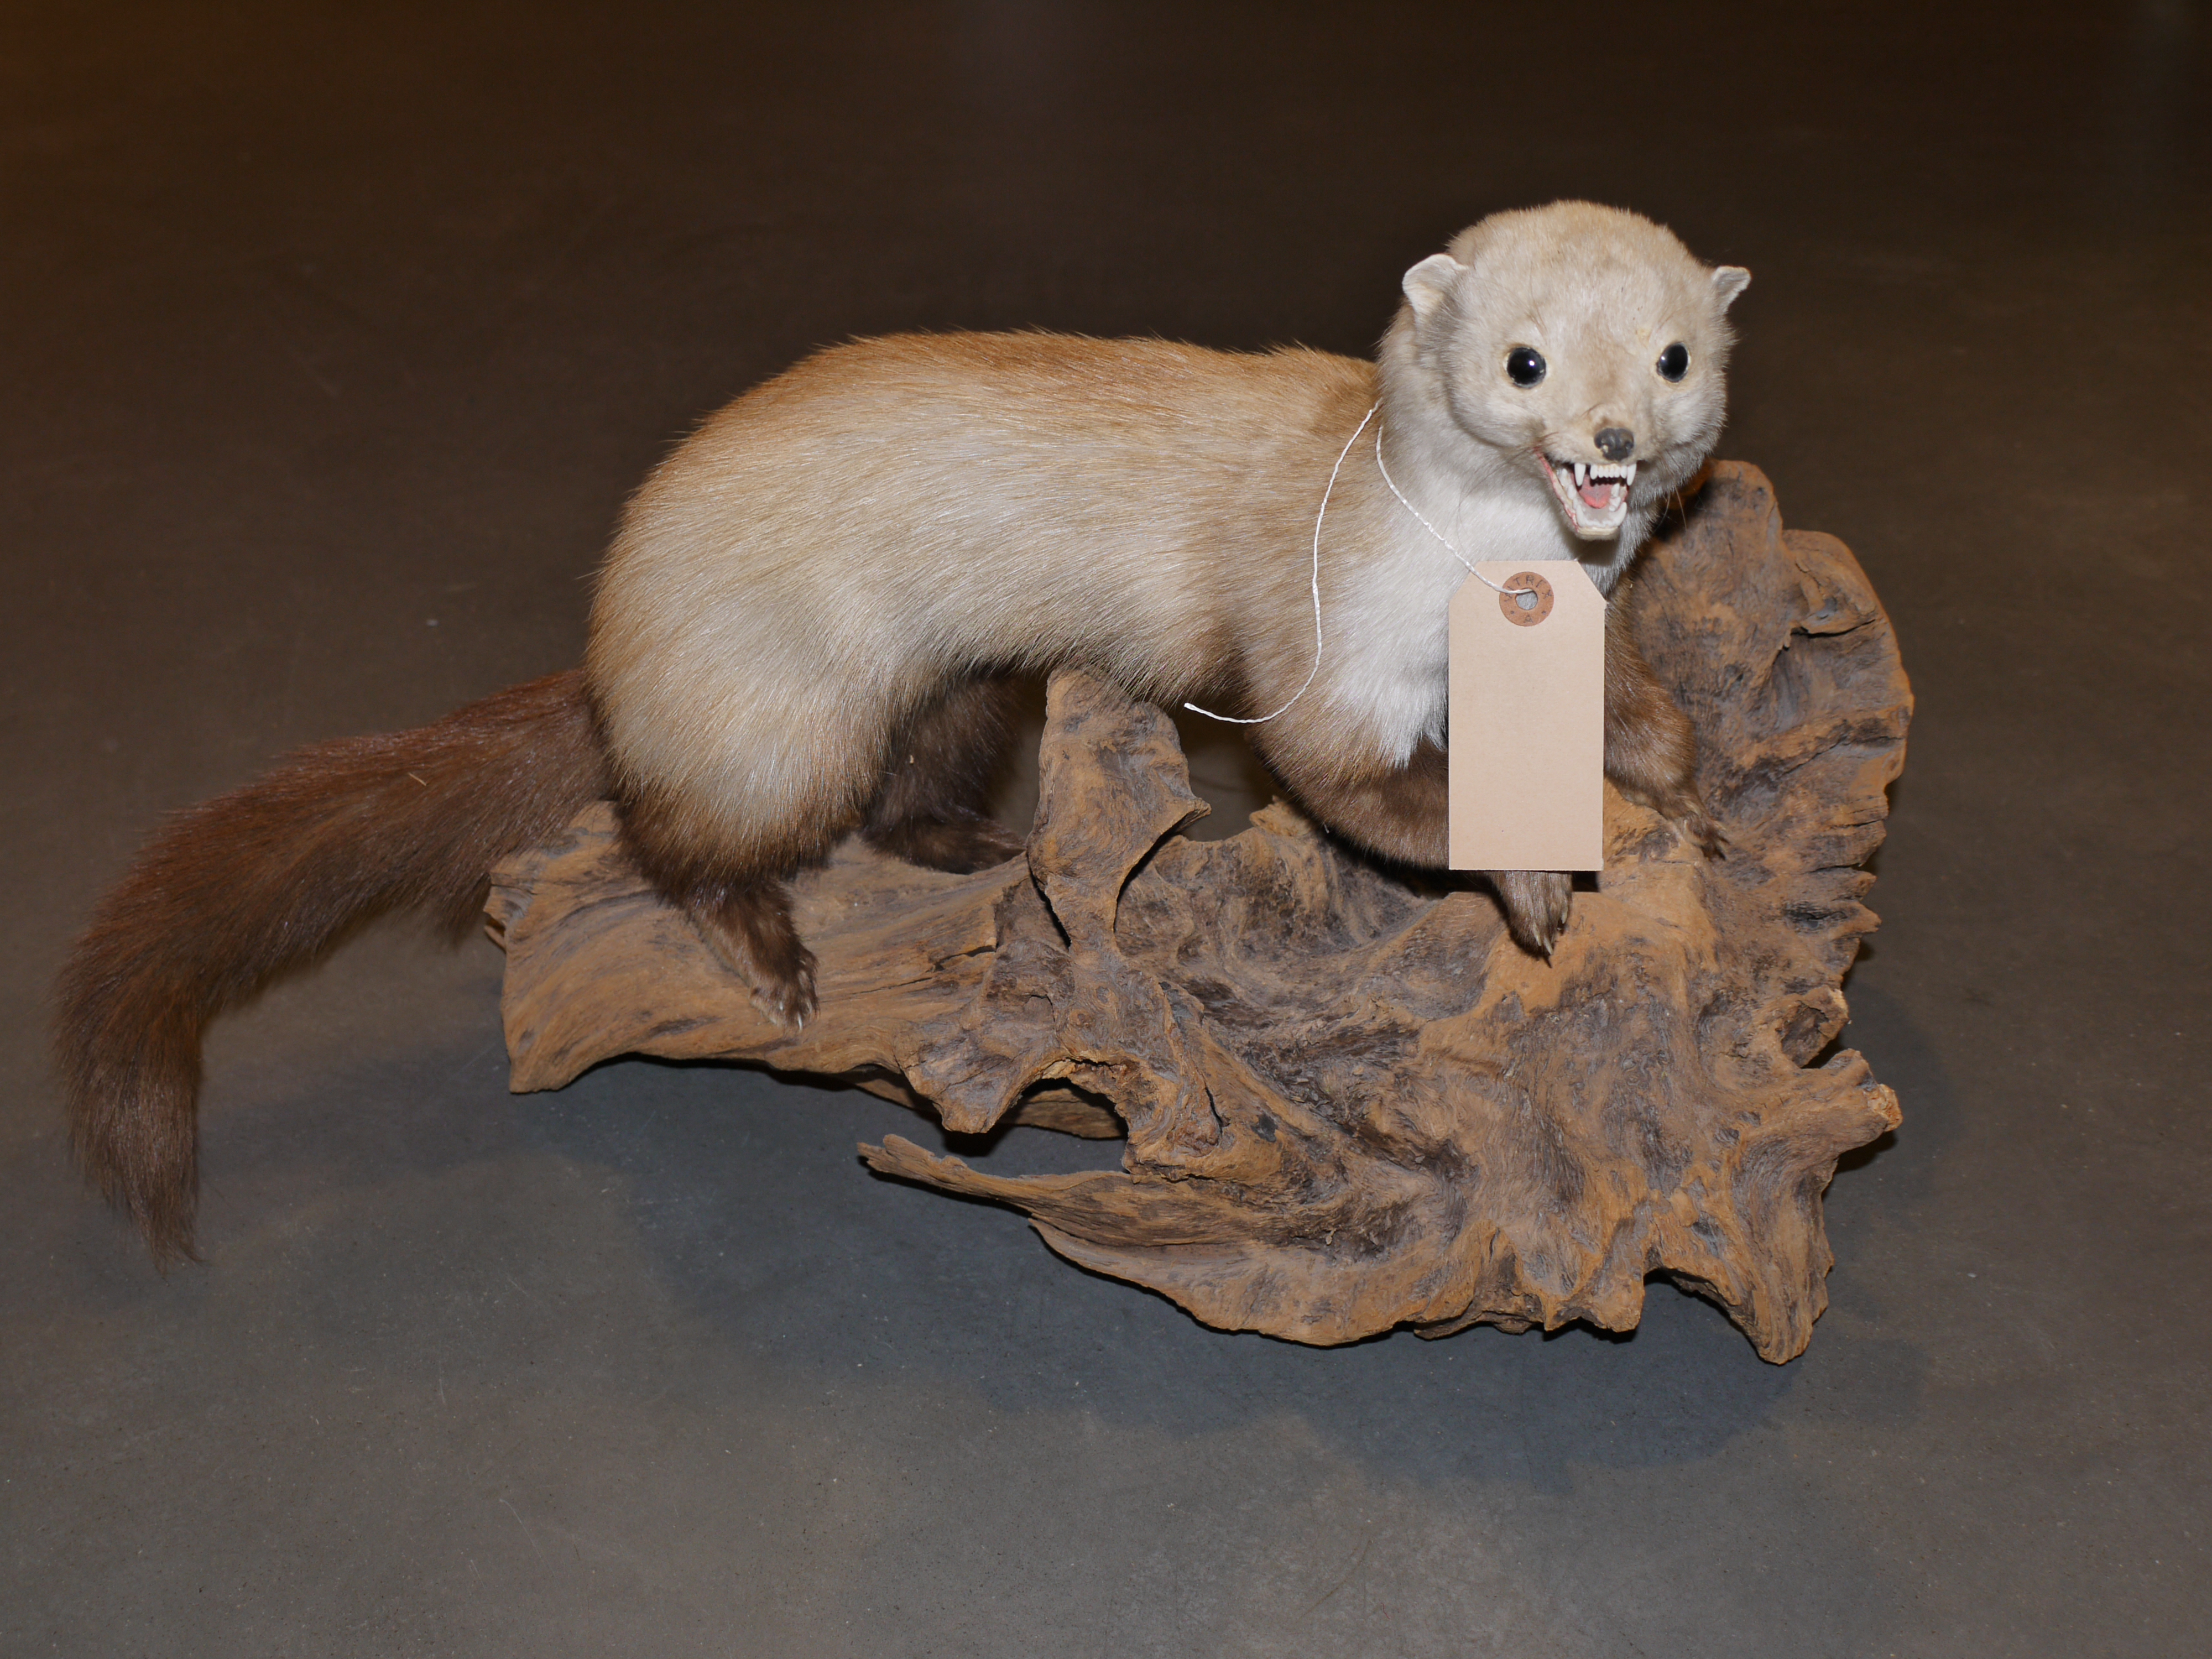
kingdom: Animalia
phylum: Chordata
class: Mammalia
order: Carnivora
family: Mustelidae
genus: Martes
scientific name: Martes foina
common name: Beech marten
